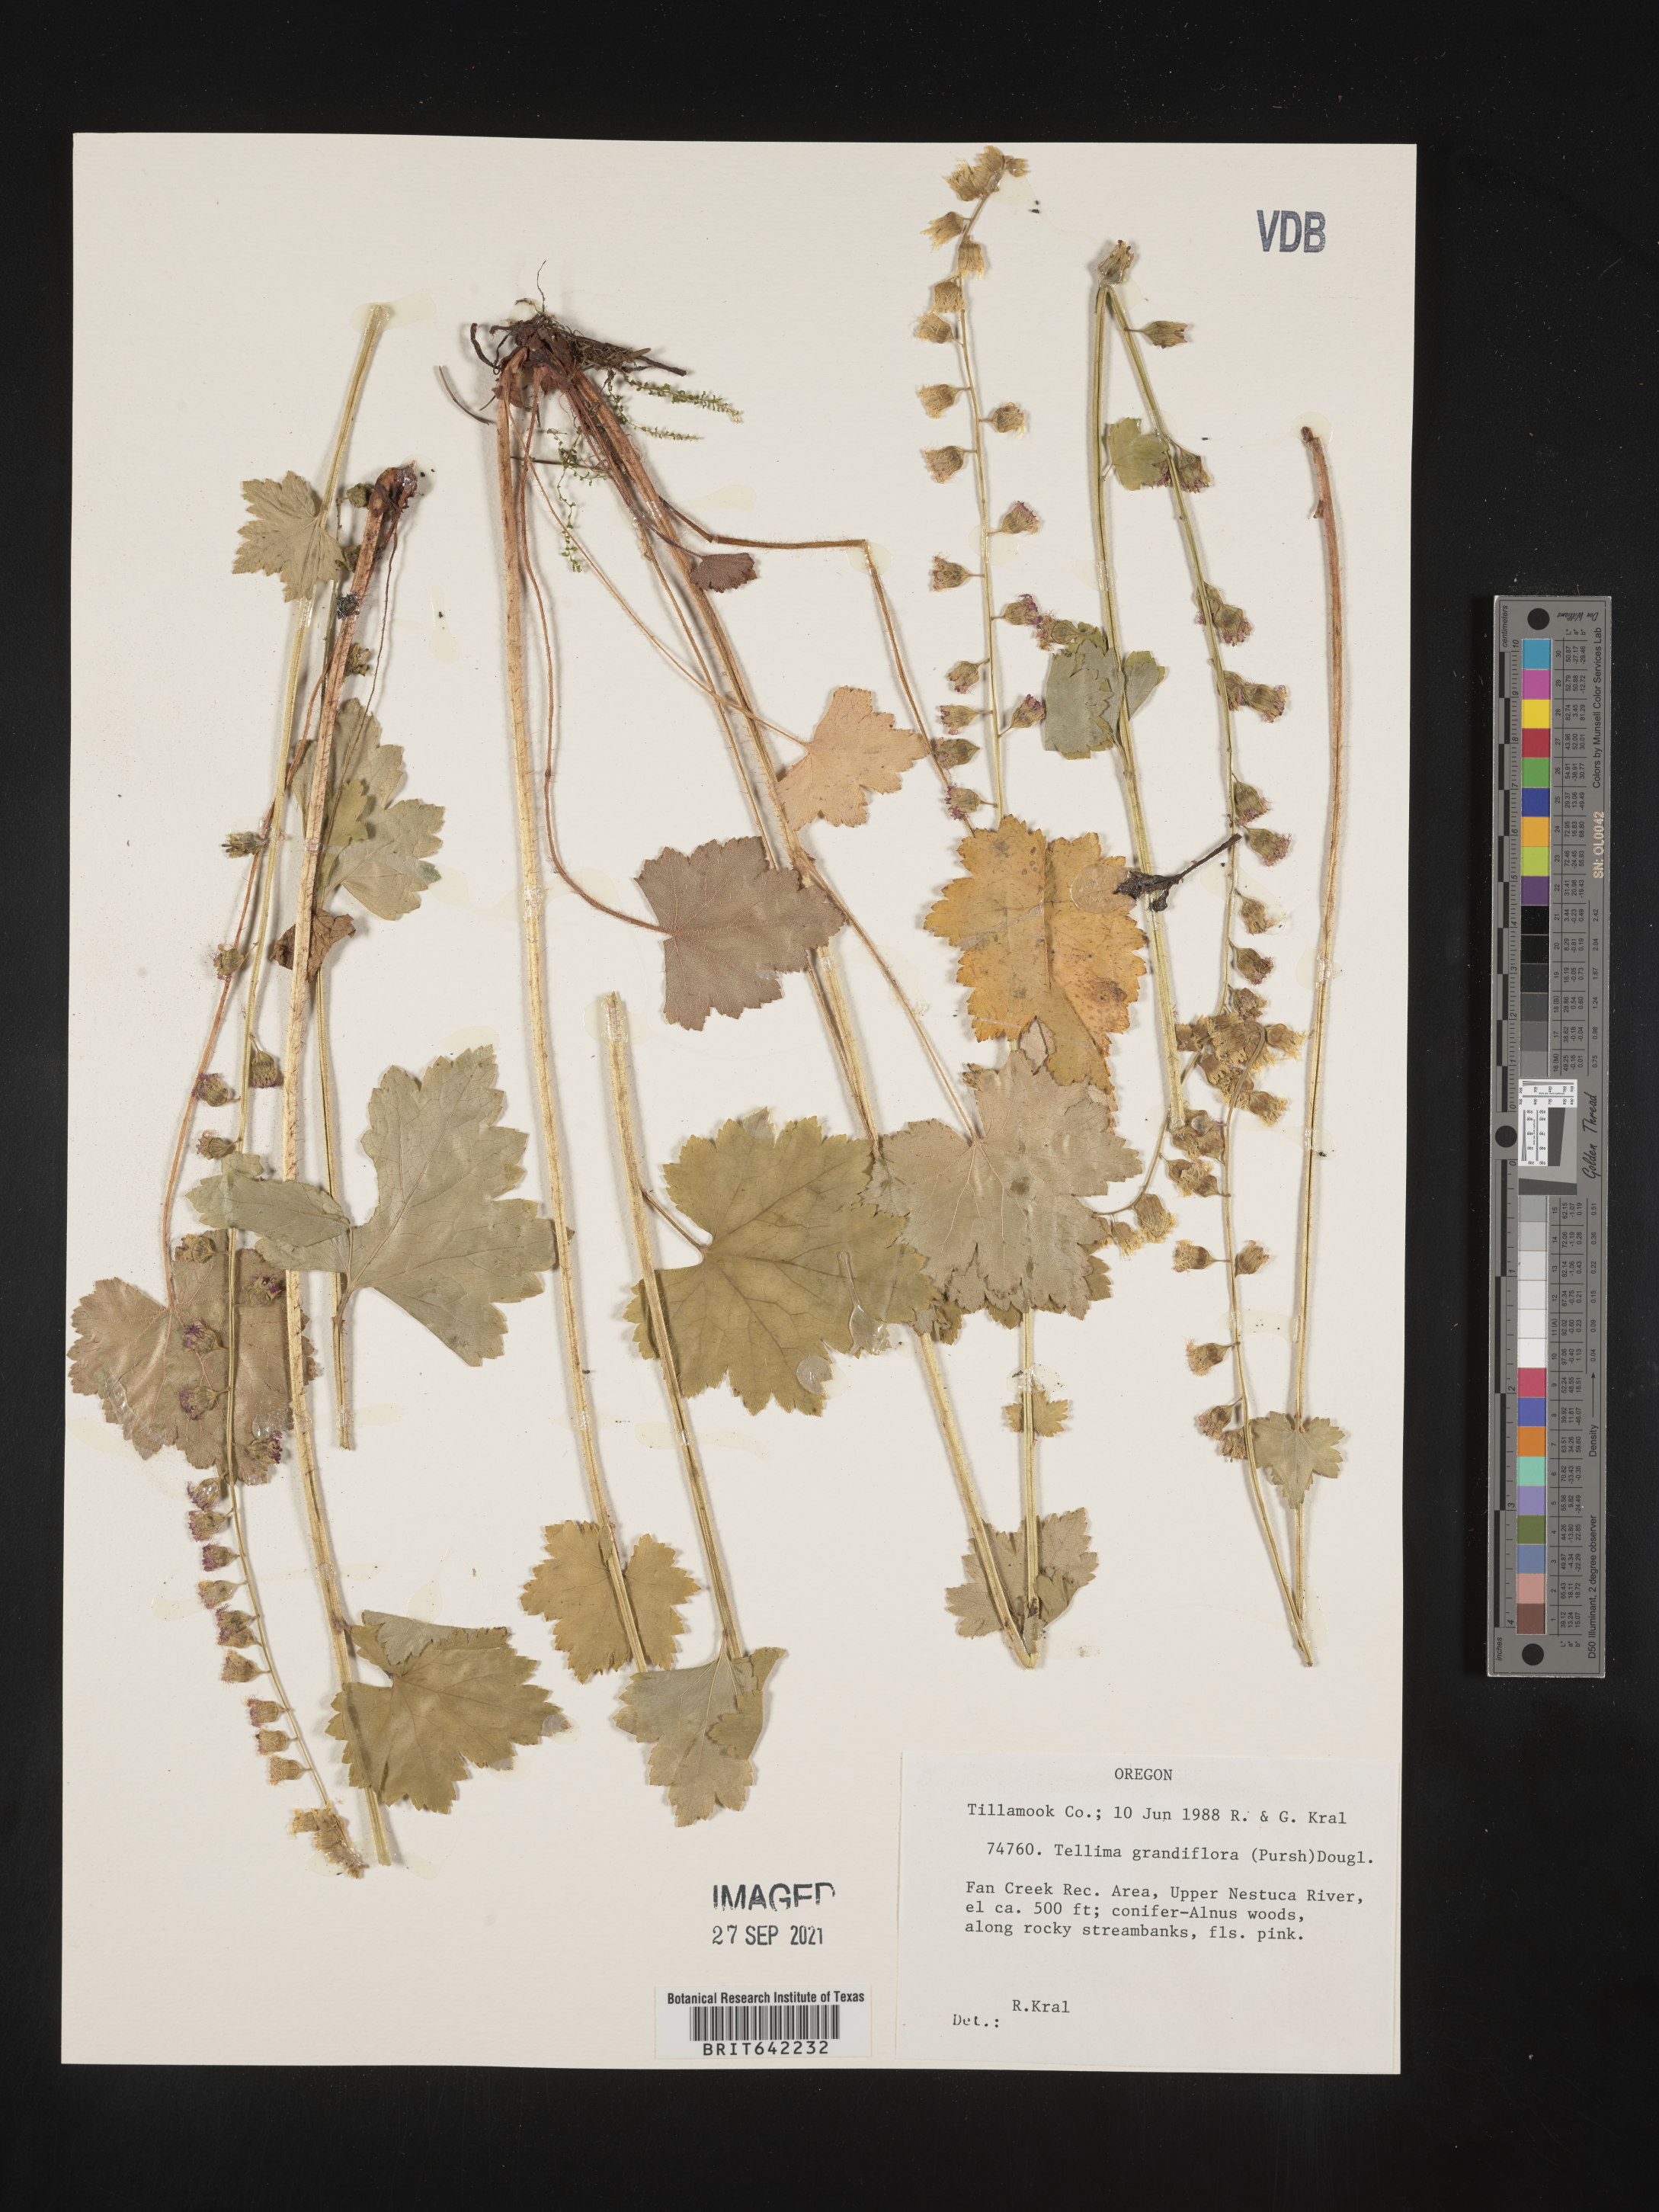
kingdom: Plantae
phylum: Tracheophyta
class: Magnoliopsida
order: Saxifragales
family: Saxifragaceae
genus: Tellima
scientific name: Tellima grandiflora
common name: Fringecups
